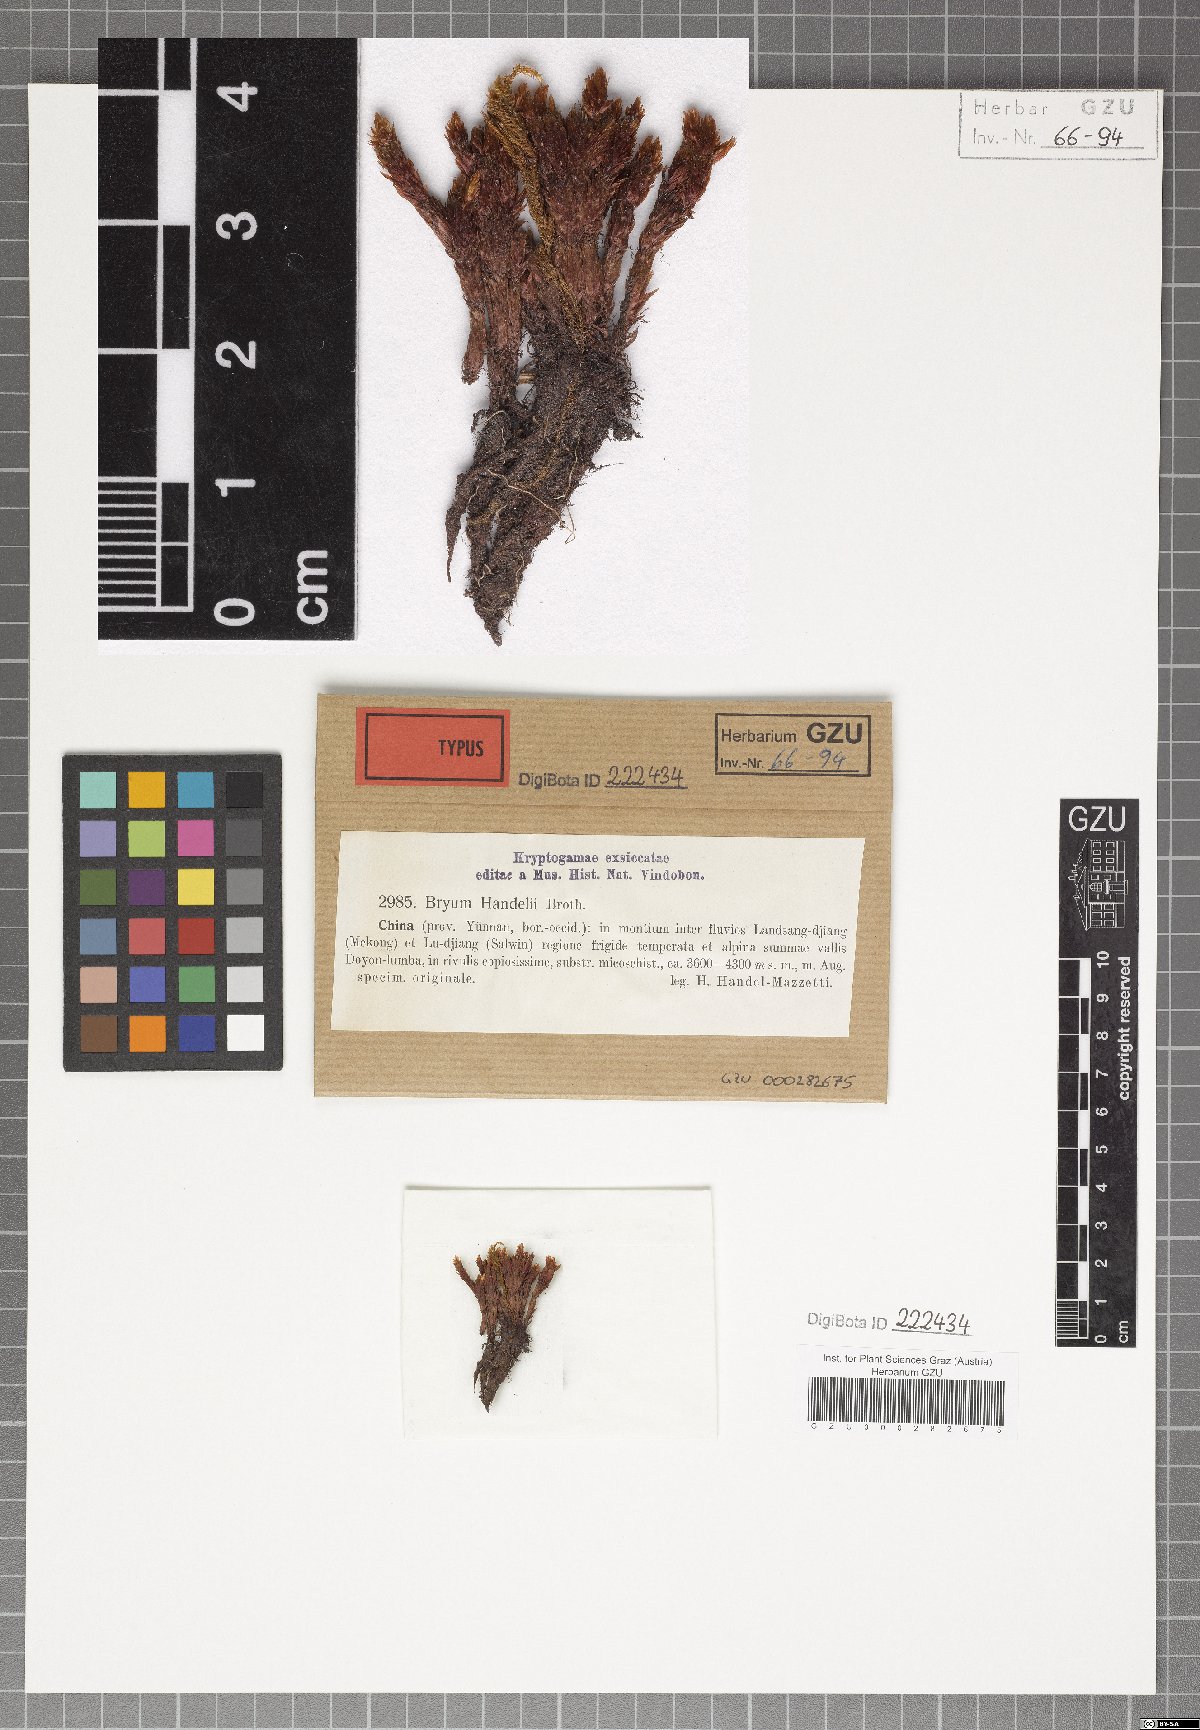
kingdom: Plantae
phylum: Bryophyta
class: Bryopsida
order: Bryales
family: Bryaceae
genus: Ochiobryum
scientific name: Ochiobryum handelii
